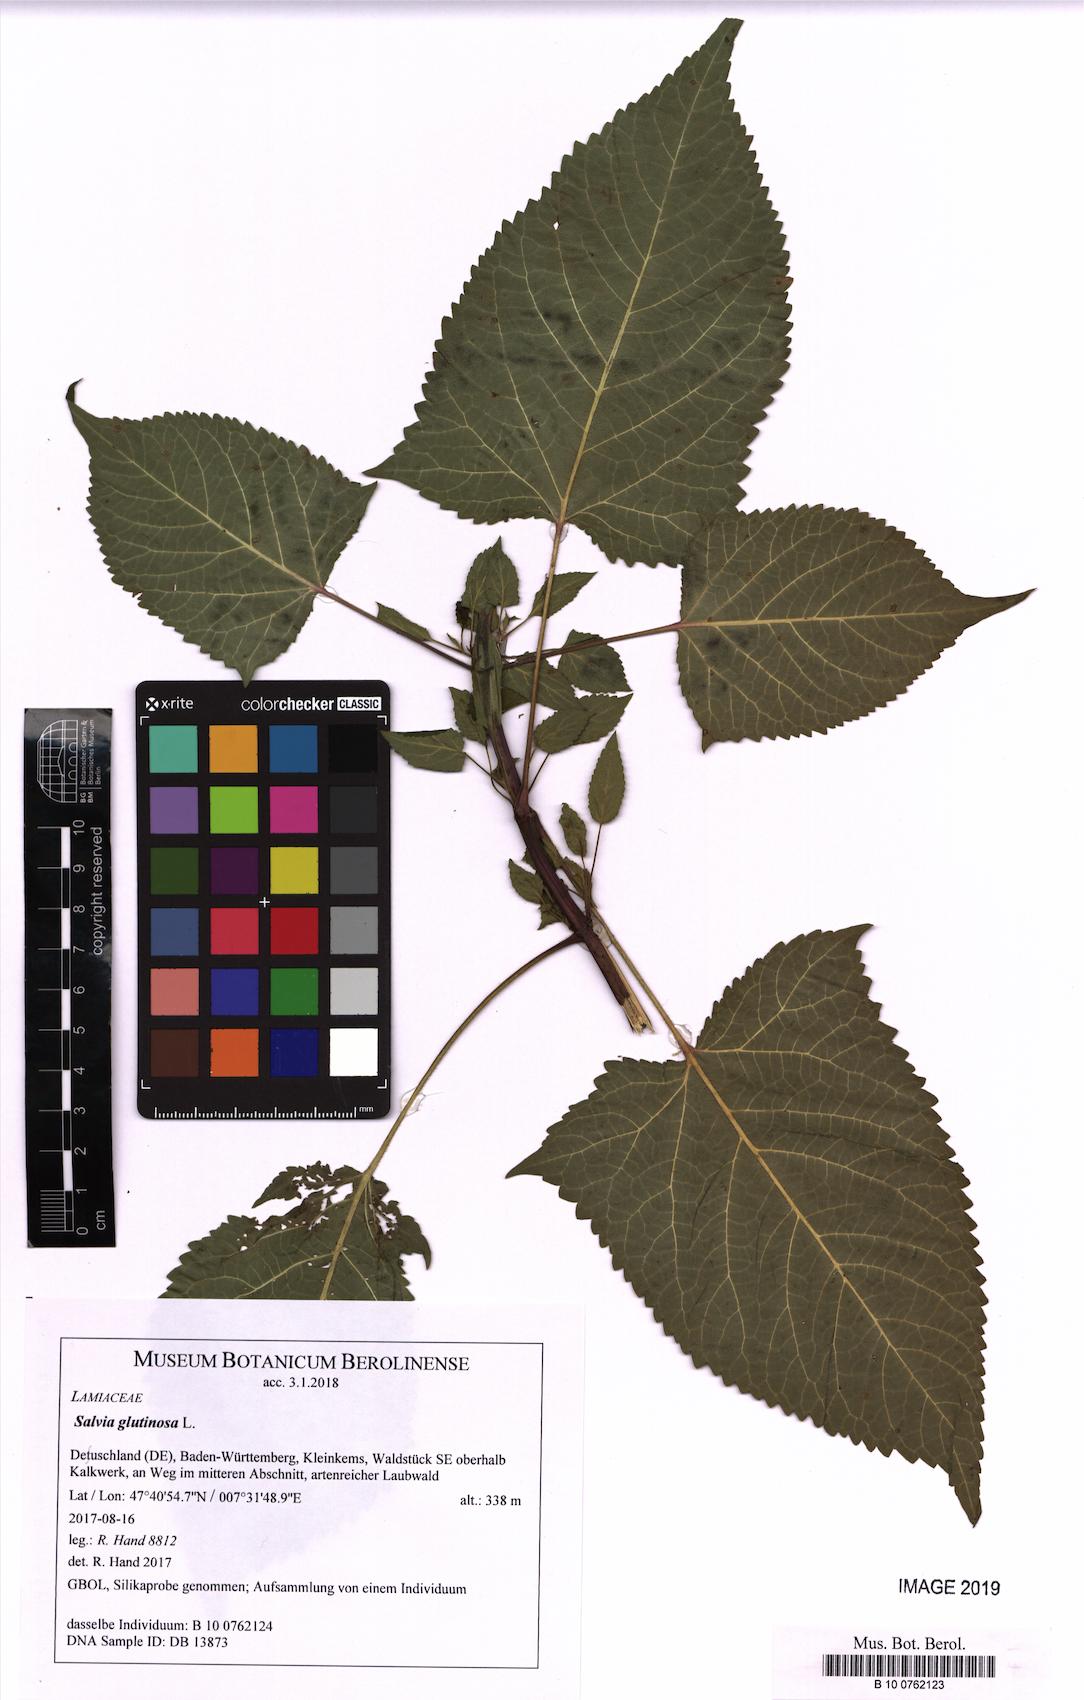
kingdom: Plantae
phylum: Tracheophyta
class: Magnoliopsida
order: Lamiales
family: Lamiaceae
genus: Salvia
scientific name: Salvia glutinosa
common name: Sticky clary
